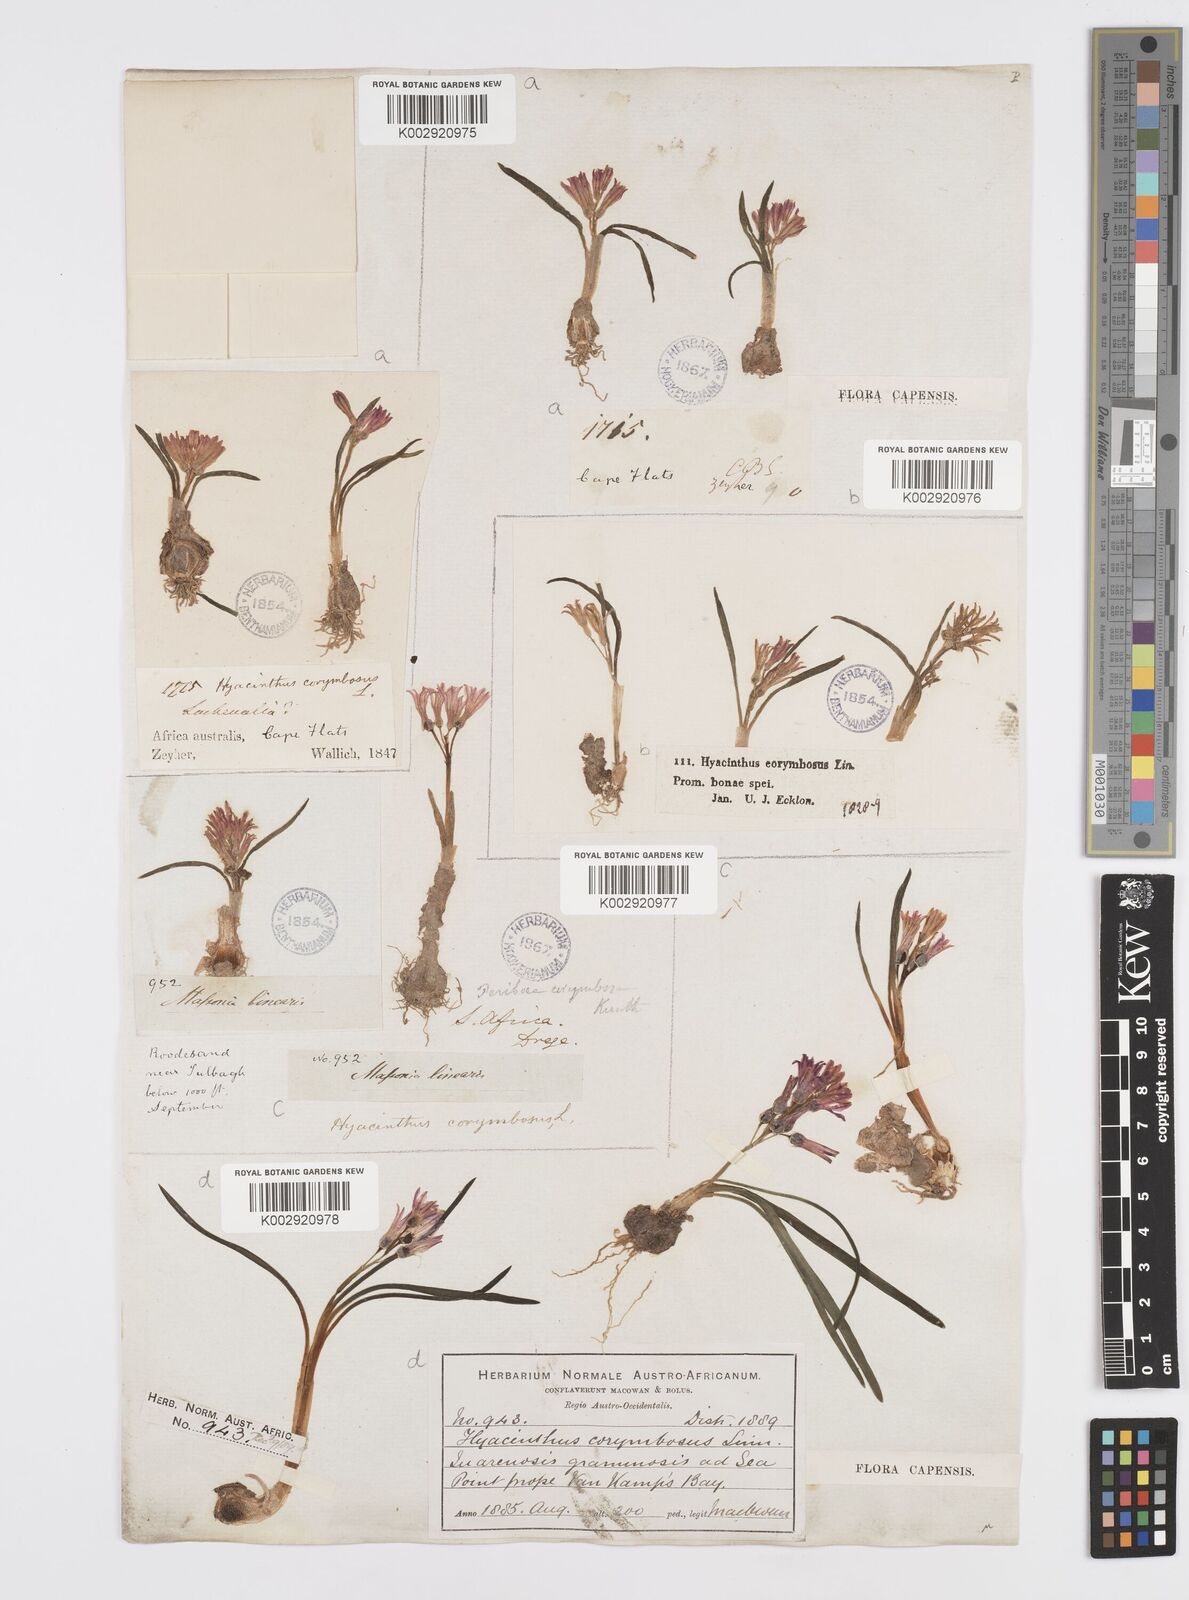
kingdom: Plantae
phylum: Tracheophyta
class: Liliopsida
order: Asparagales
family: Asparagaceae
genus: Lachenalia
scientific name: Lachenalia corymbosa
